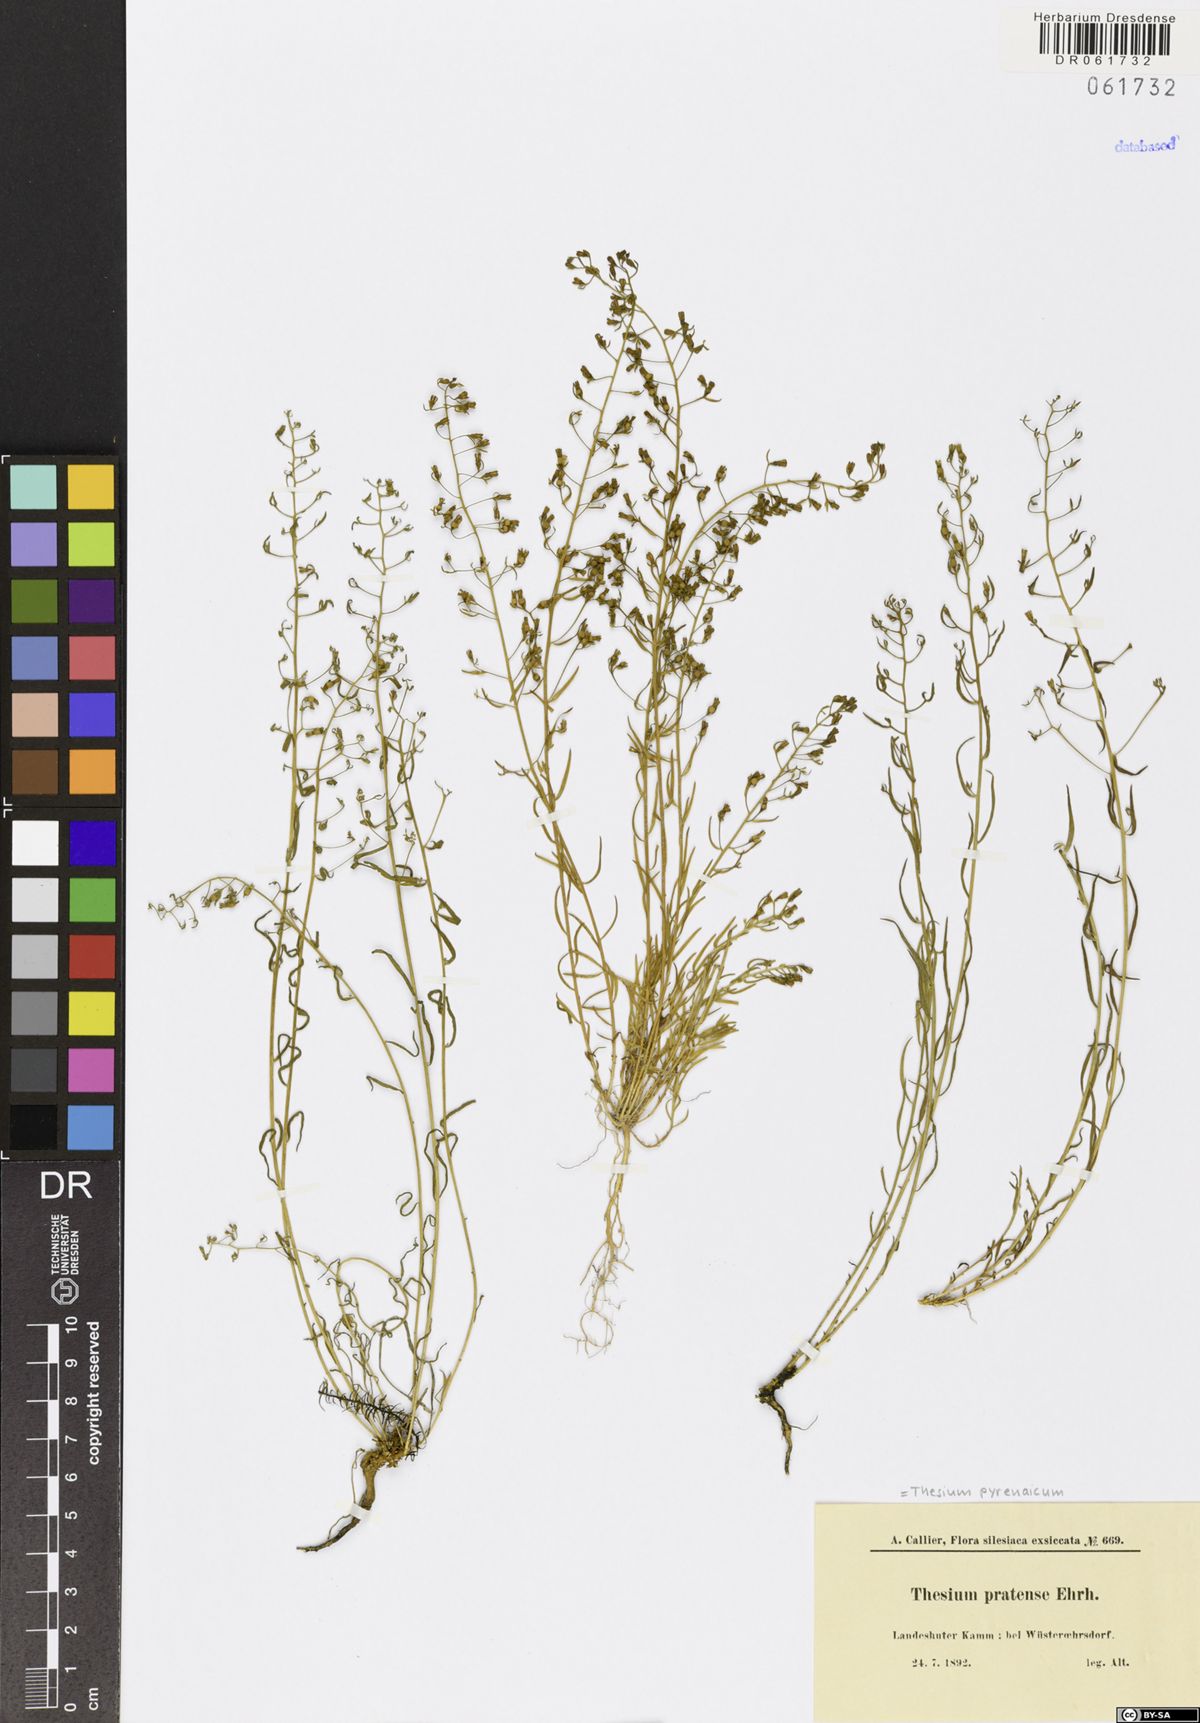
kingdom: Plantae
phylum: Tracheophyta
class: Magnoliopsida
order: Santalales
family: Thesiaceae
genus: Thesium
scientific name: Thesium pyrenaicum
